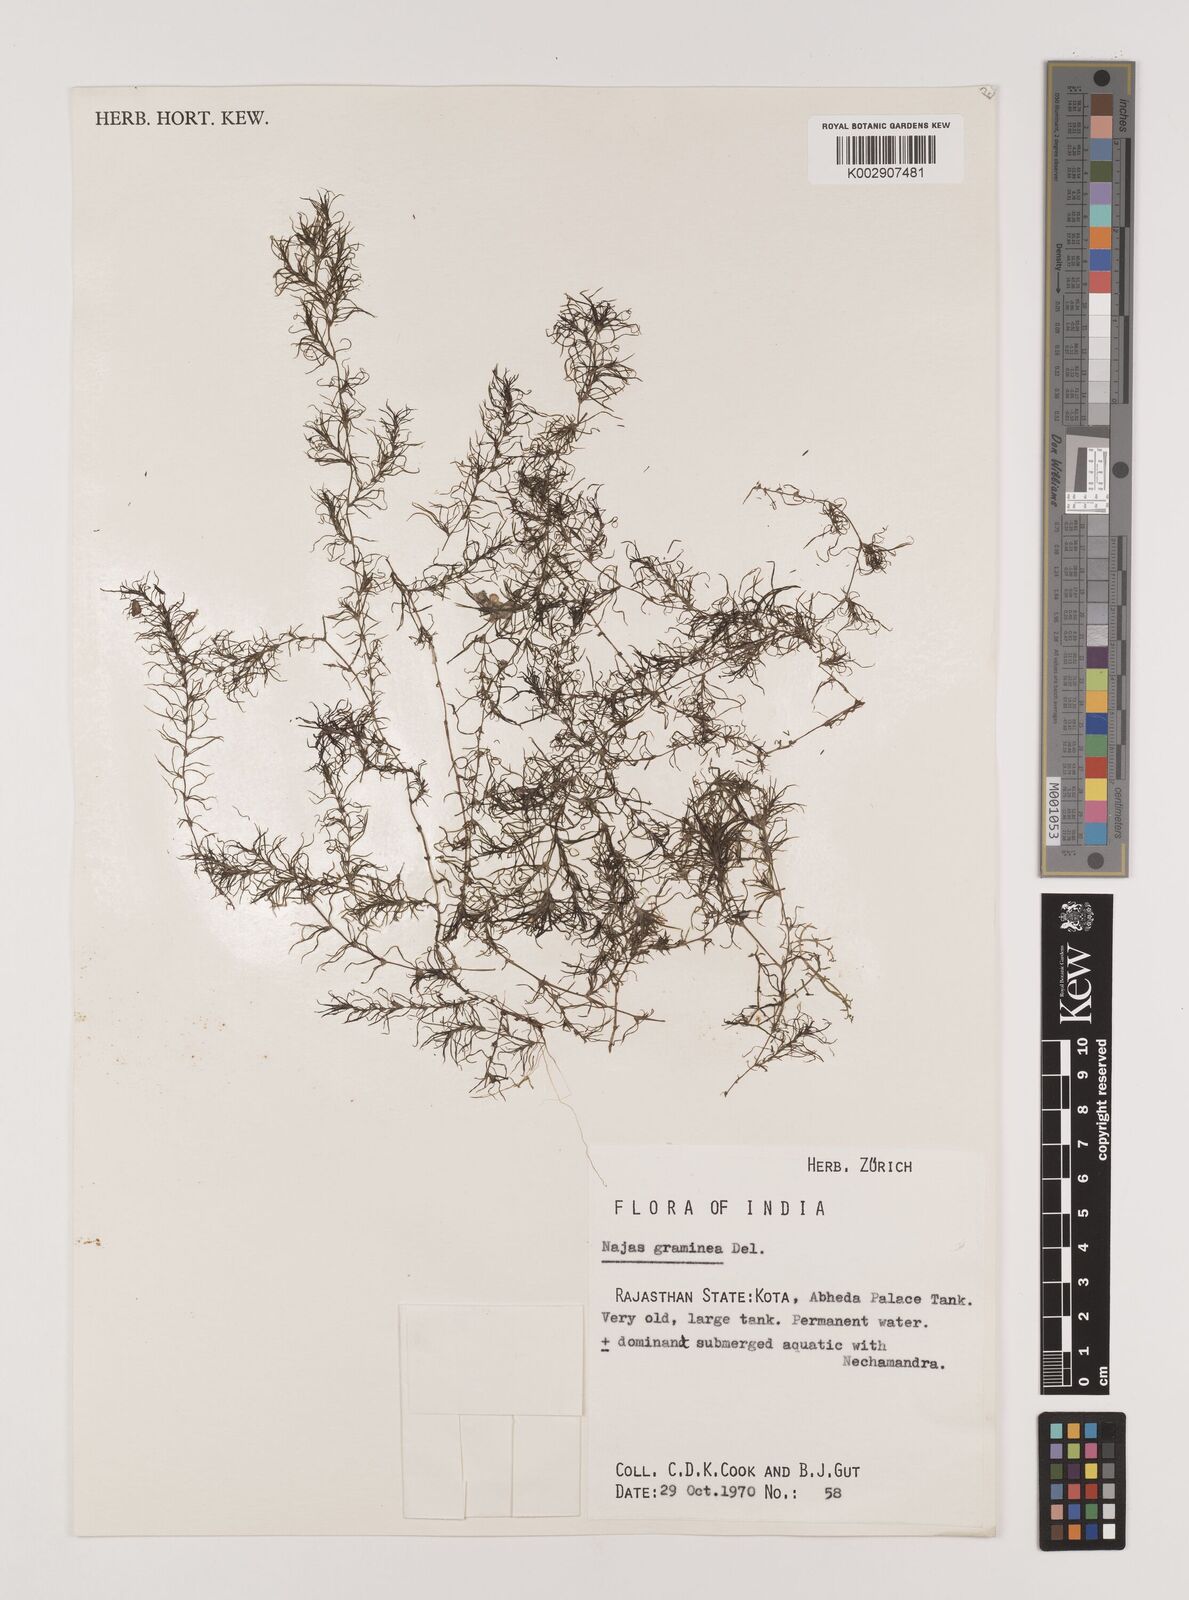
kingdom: Plantae
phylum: Tracheophyta
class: Liliopsida
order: Alismatales
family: Hydrocharitaceae
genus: Najas
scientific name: Najas graminea
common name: Ricefield waternymph
